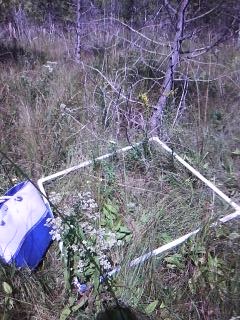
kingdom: Plantae
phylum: Tracheophyta
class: Liliopsida
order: Poales
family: Cyperaceae
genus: Carex
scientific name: Carex stricta
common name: Hummock sedge
